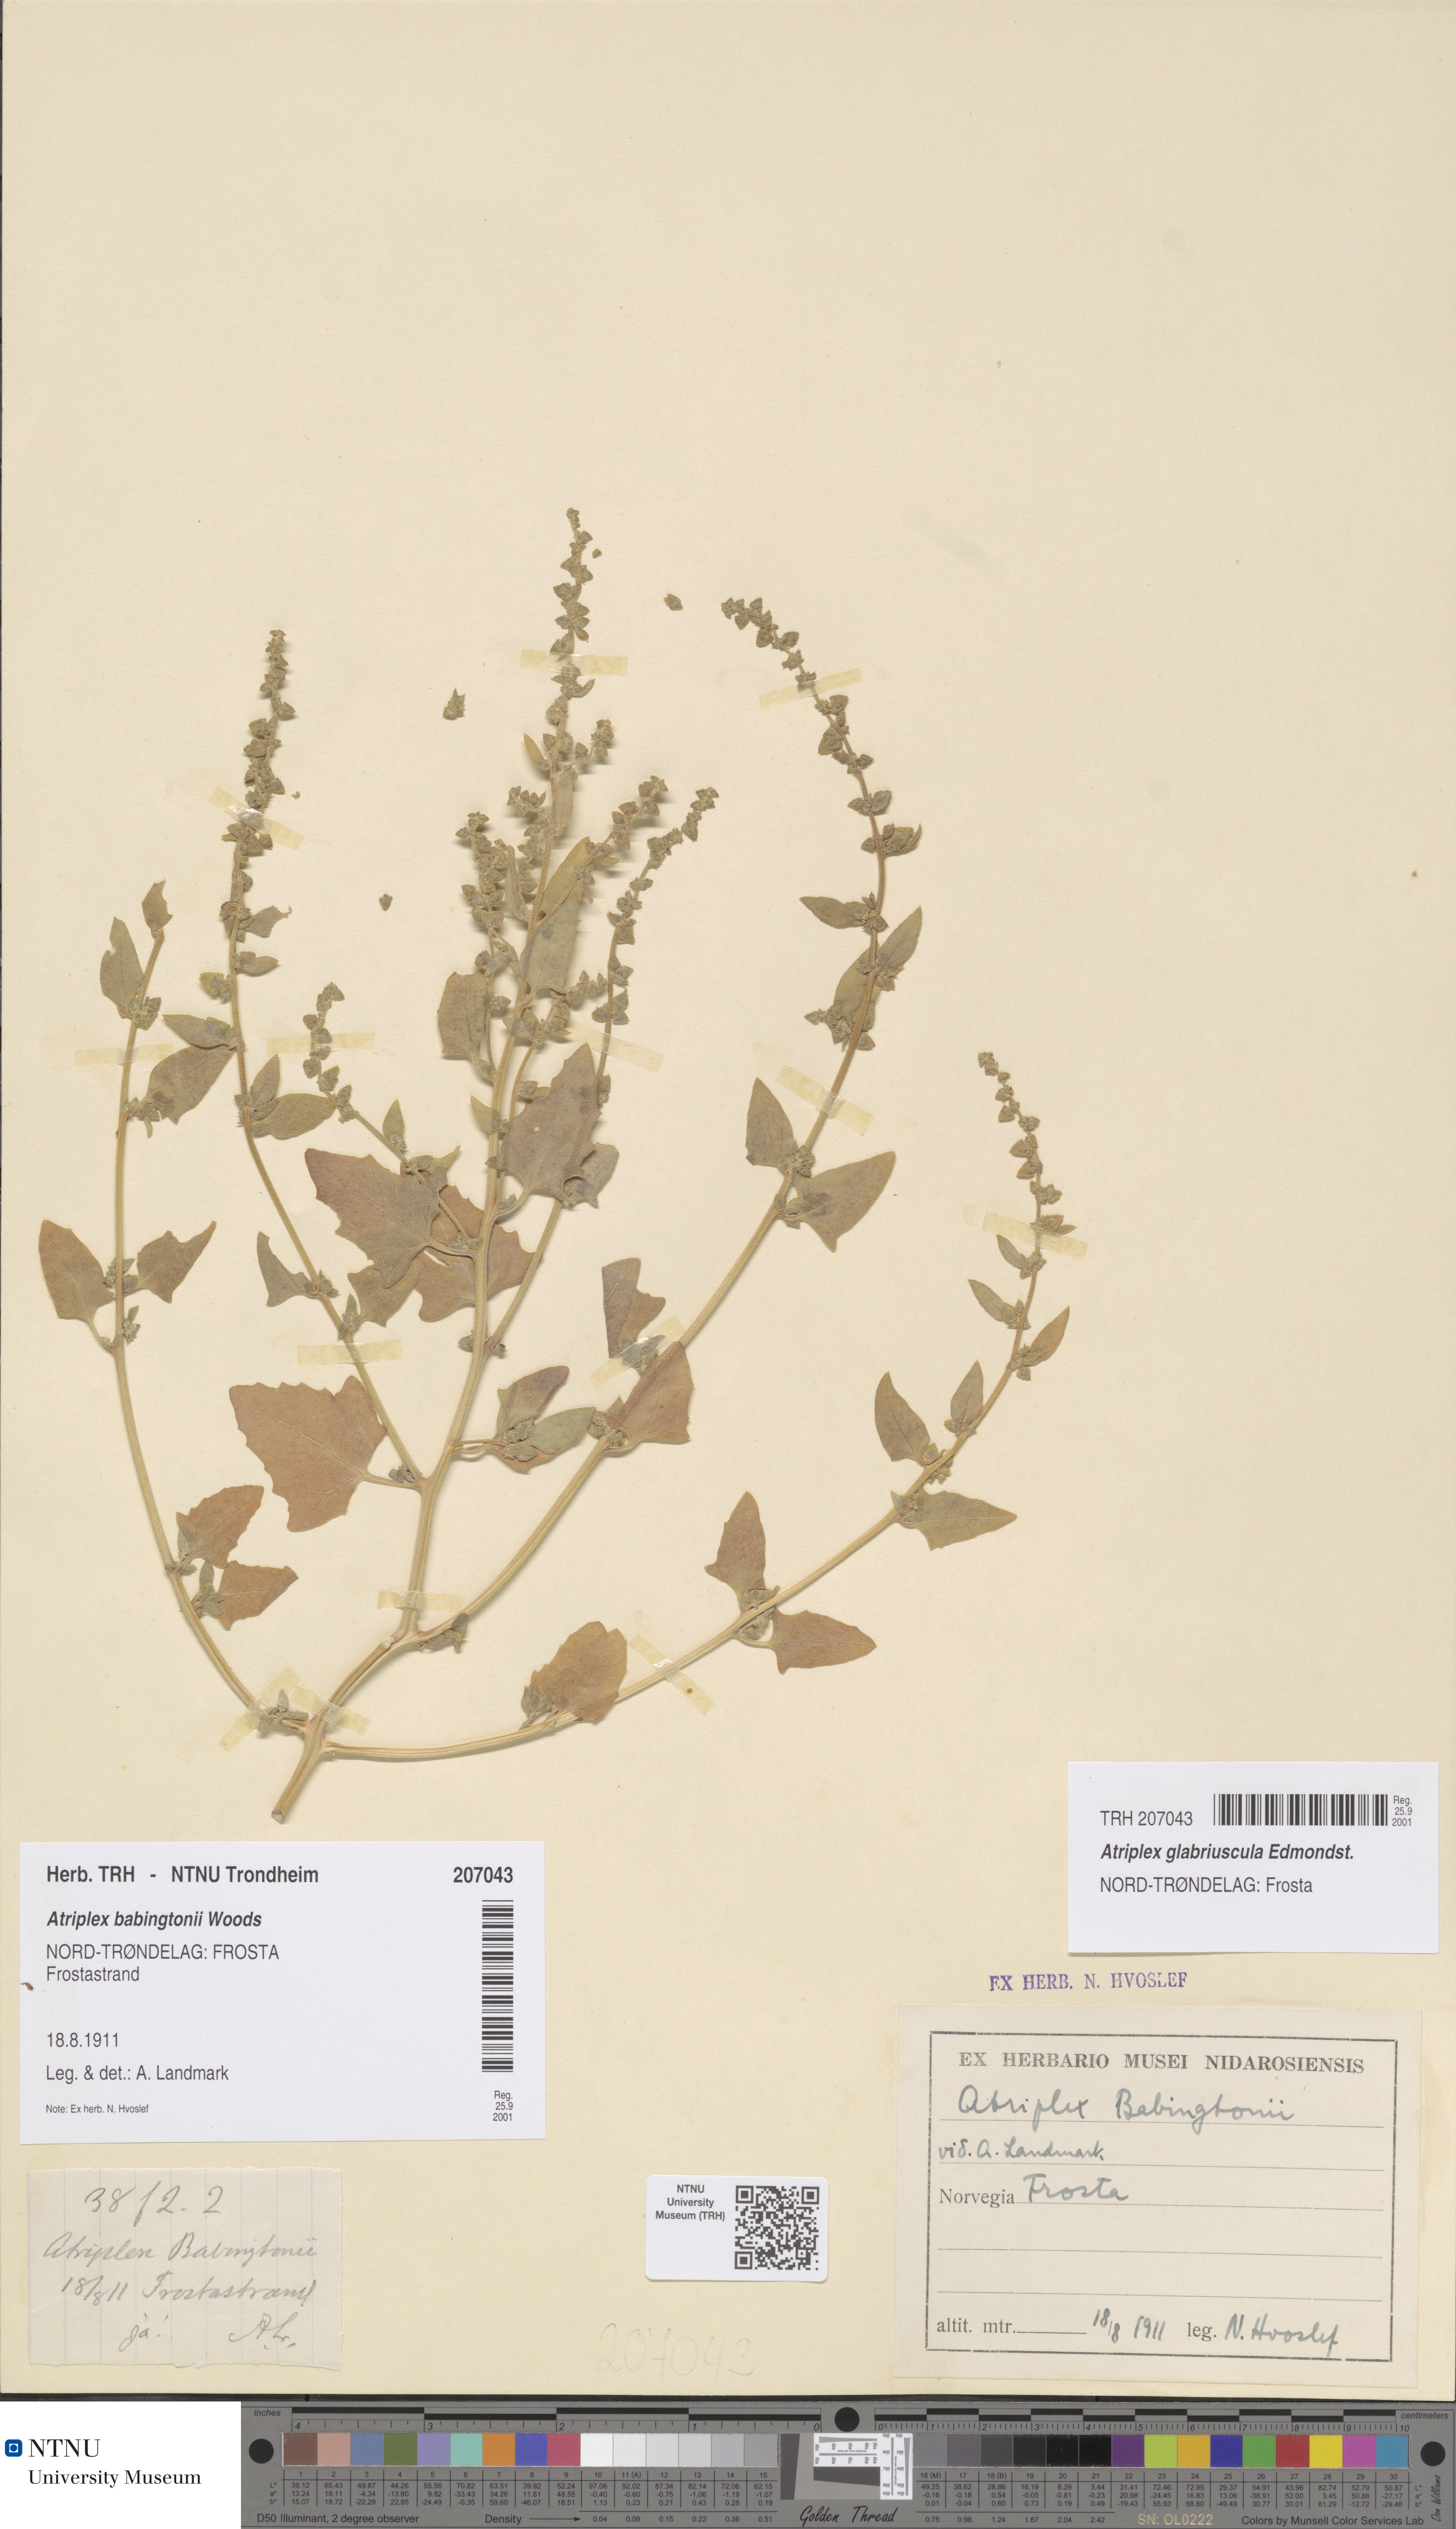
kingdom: Plantae
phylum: Tracheophyta
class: Magnoliopsida
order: Caryophyllales
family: Amaranthaceae
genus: Atriplex
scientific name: Atriplex glabriuscula
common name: Babington's orache
